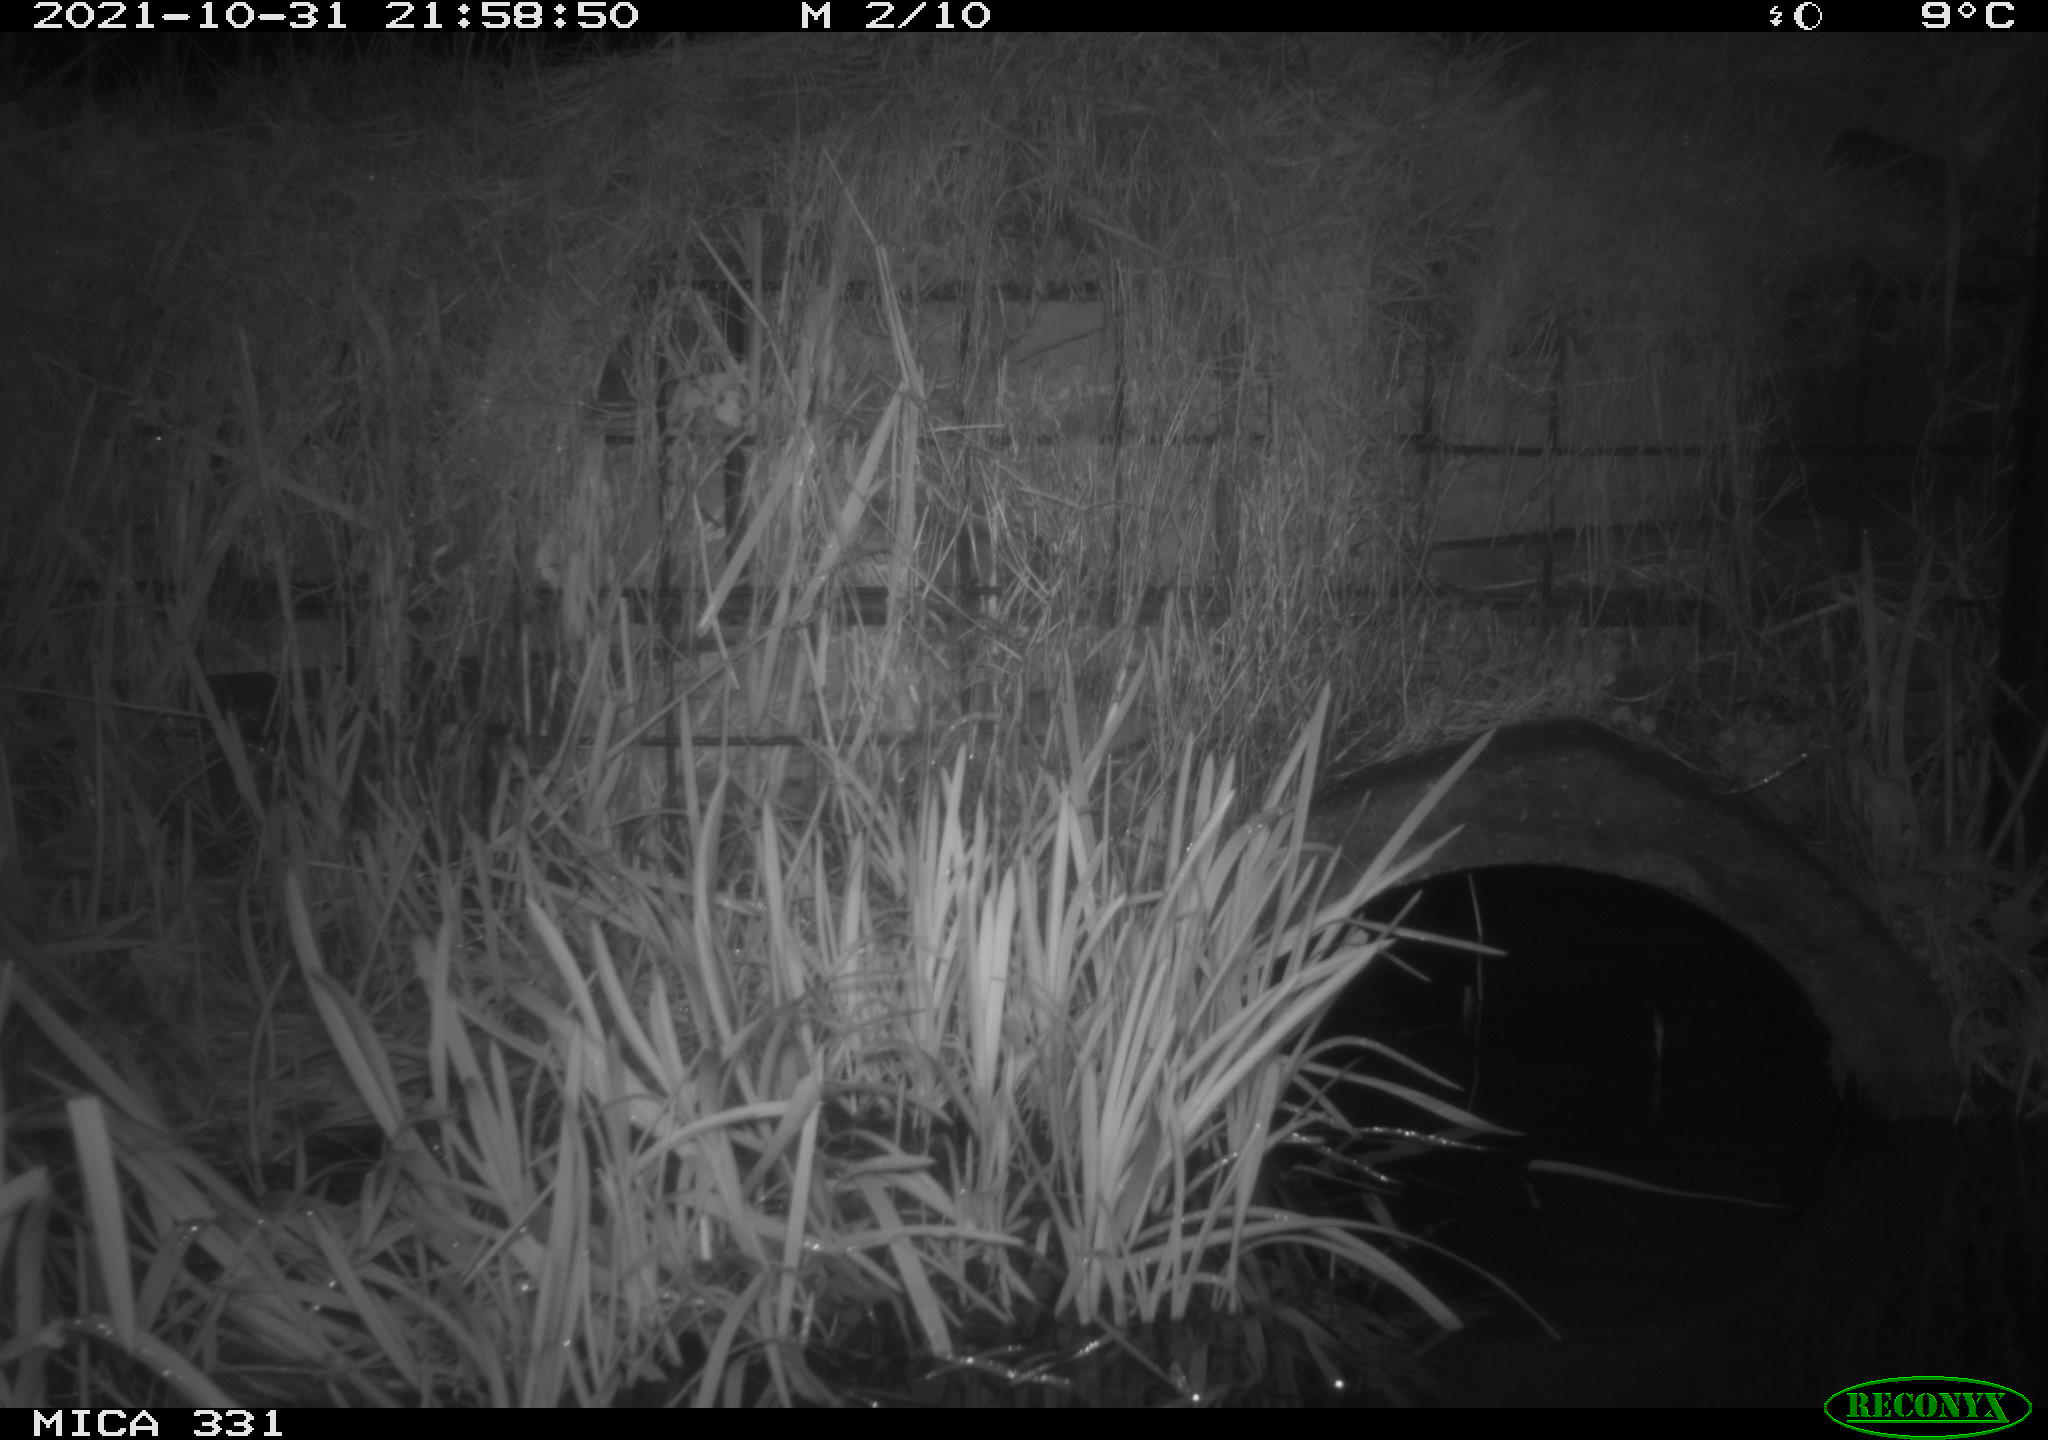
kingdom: Animalia
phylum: Chordata
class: Mammalia
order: Rodentia
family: Muridae
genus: Rattus
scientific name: Rattus norvegicus
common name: Brown rat
